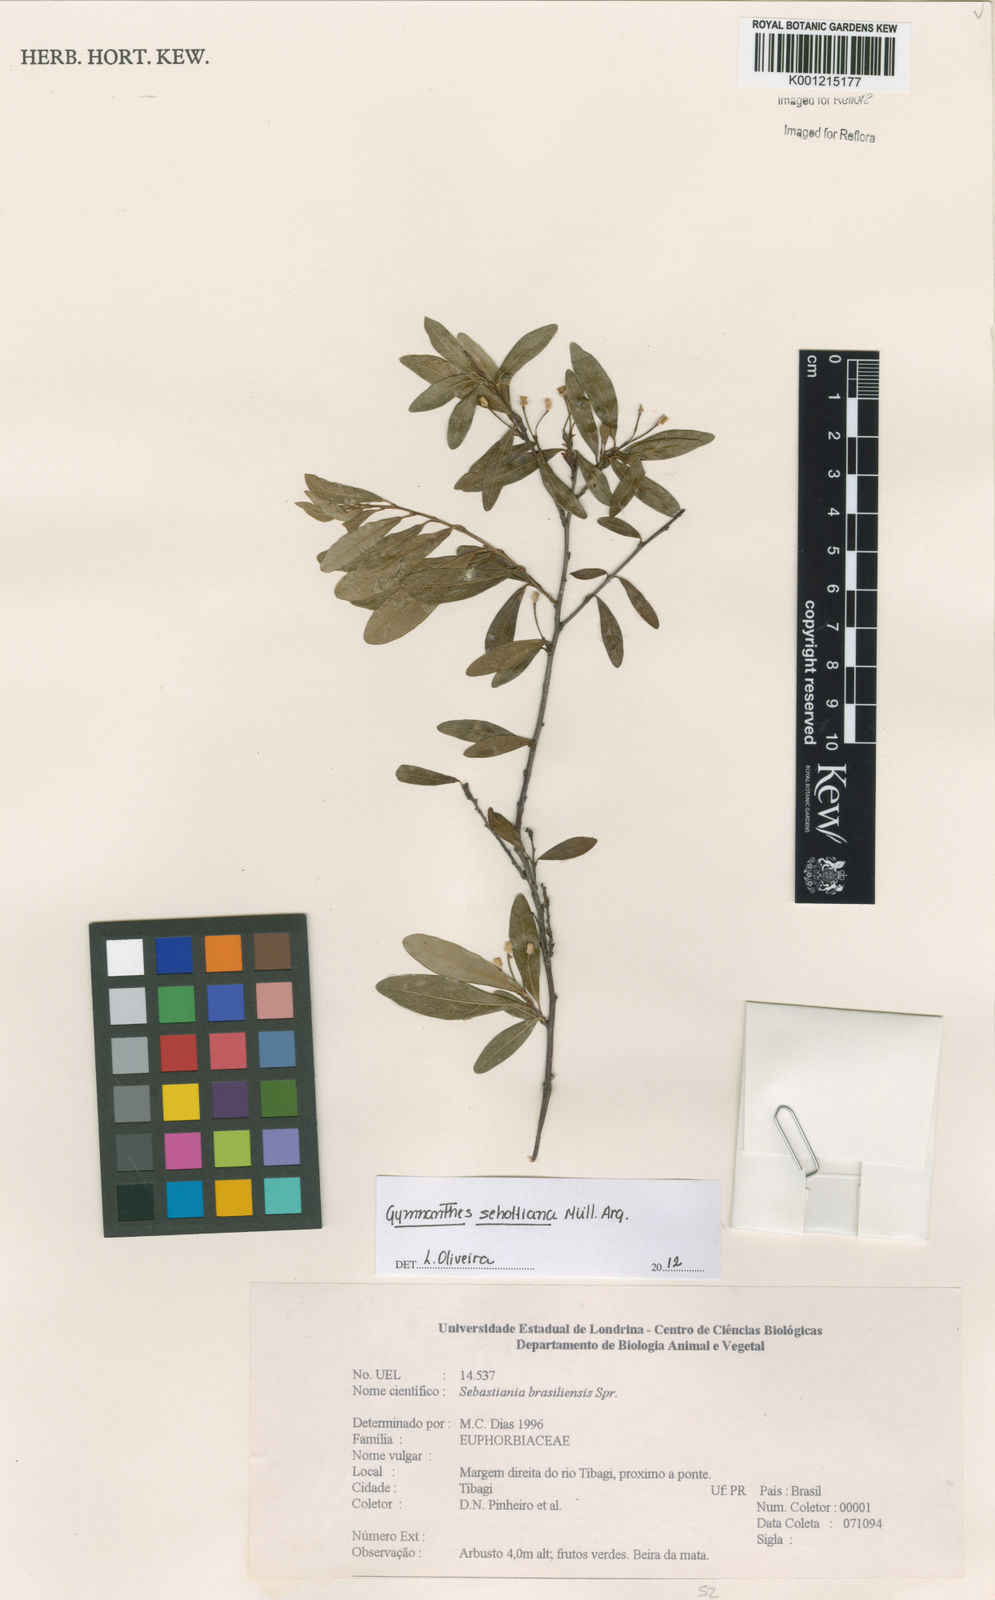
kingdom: Plantae
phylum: Tracheophyta
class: Magnoliopsida
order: Malpighiales
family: Euphorbiaceae
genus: Gymnanthes
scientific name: Gymnanthes
